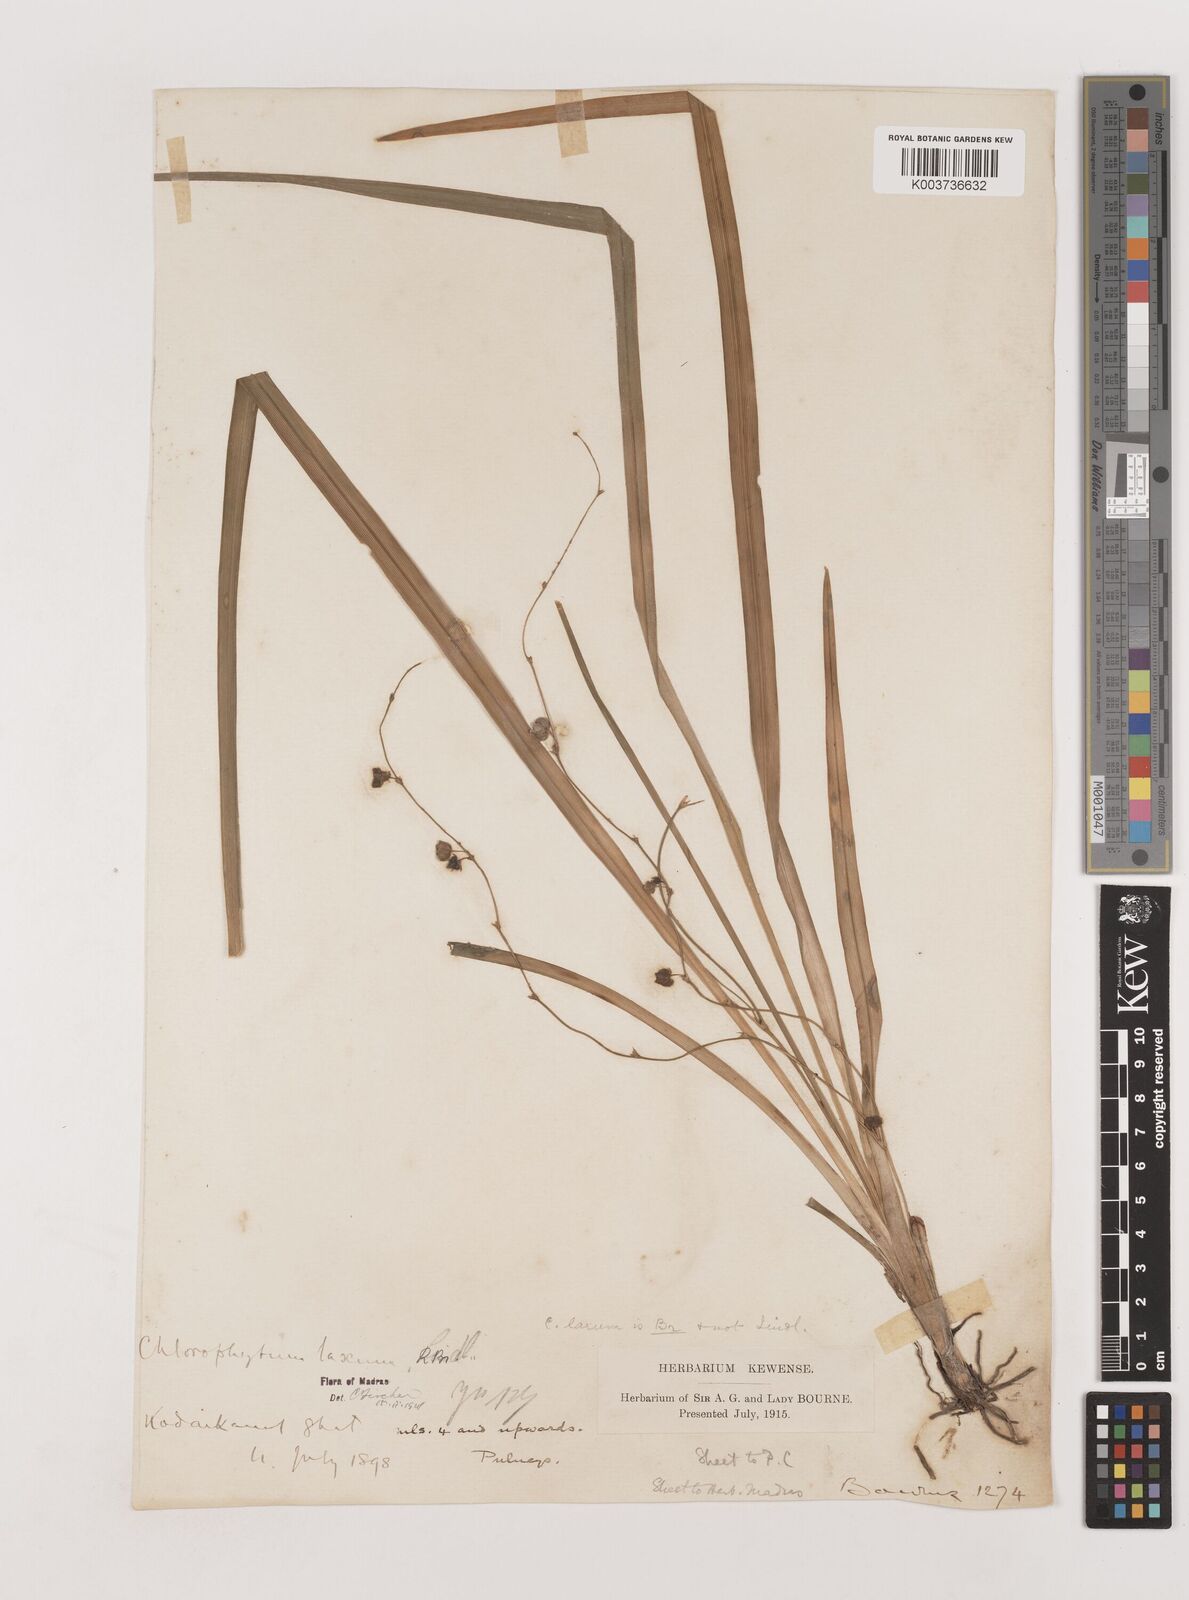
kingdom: Plantae
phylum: Tracheophyta
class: Liliopsida
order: Asparagales
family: Asparagaceae
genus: Chlorophytum
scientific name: Chlorophytum laxum
